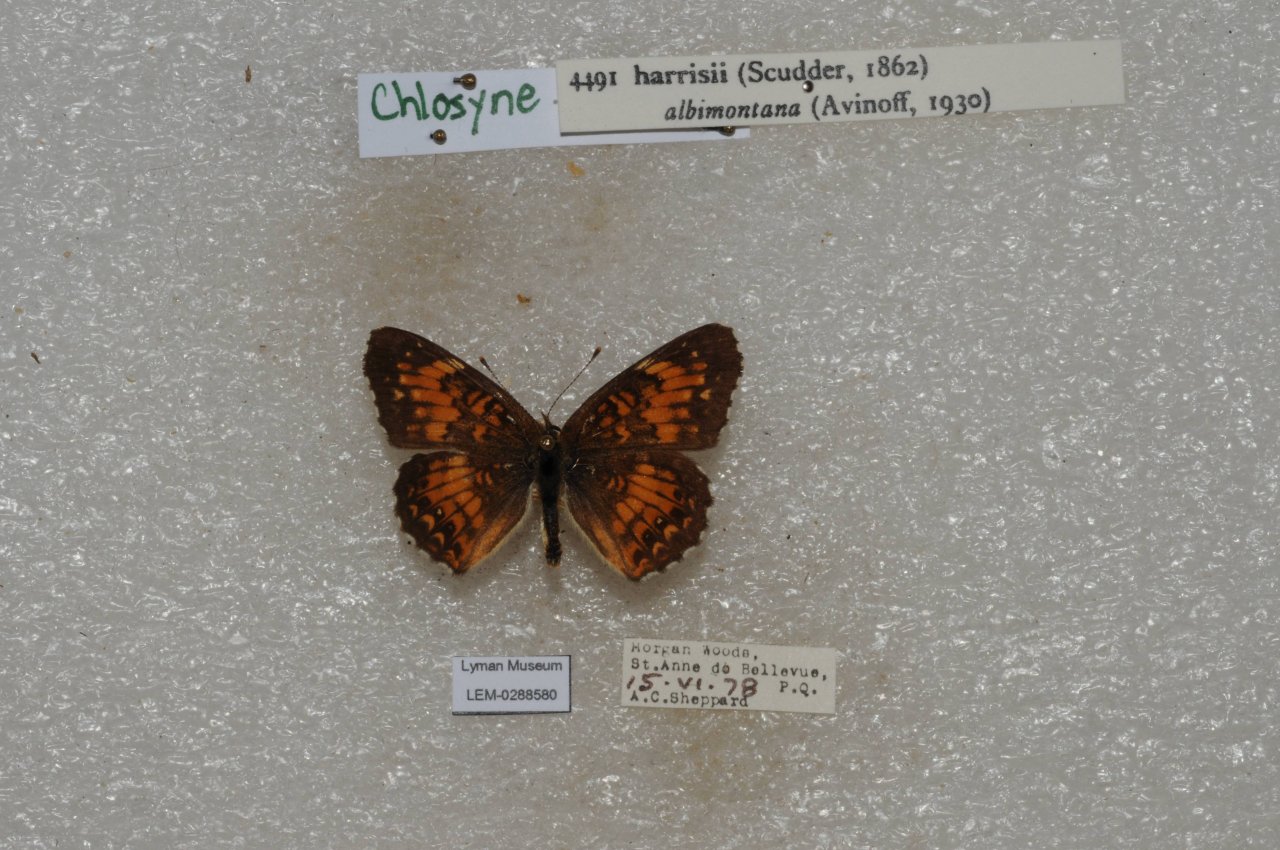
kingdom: Animalia
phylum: Arthropoda
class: Insecta
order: Lepidoptera
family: Nymphalidae
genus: Chlosyne
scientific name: Chlosyne harrisii
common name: Harris's Checkerspot
